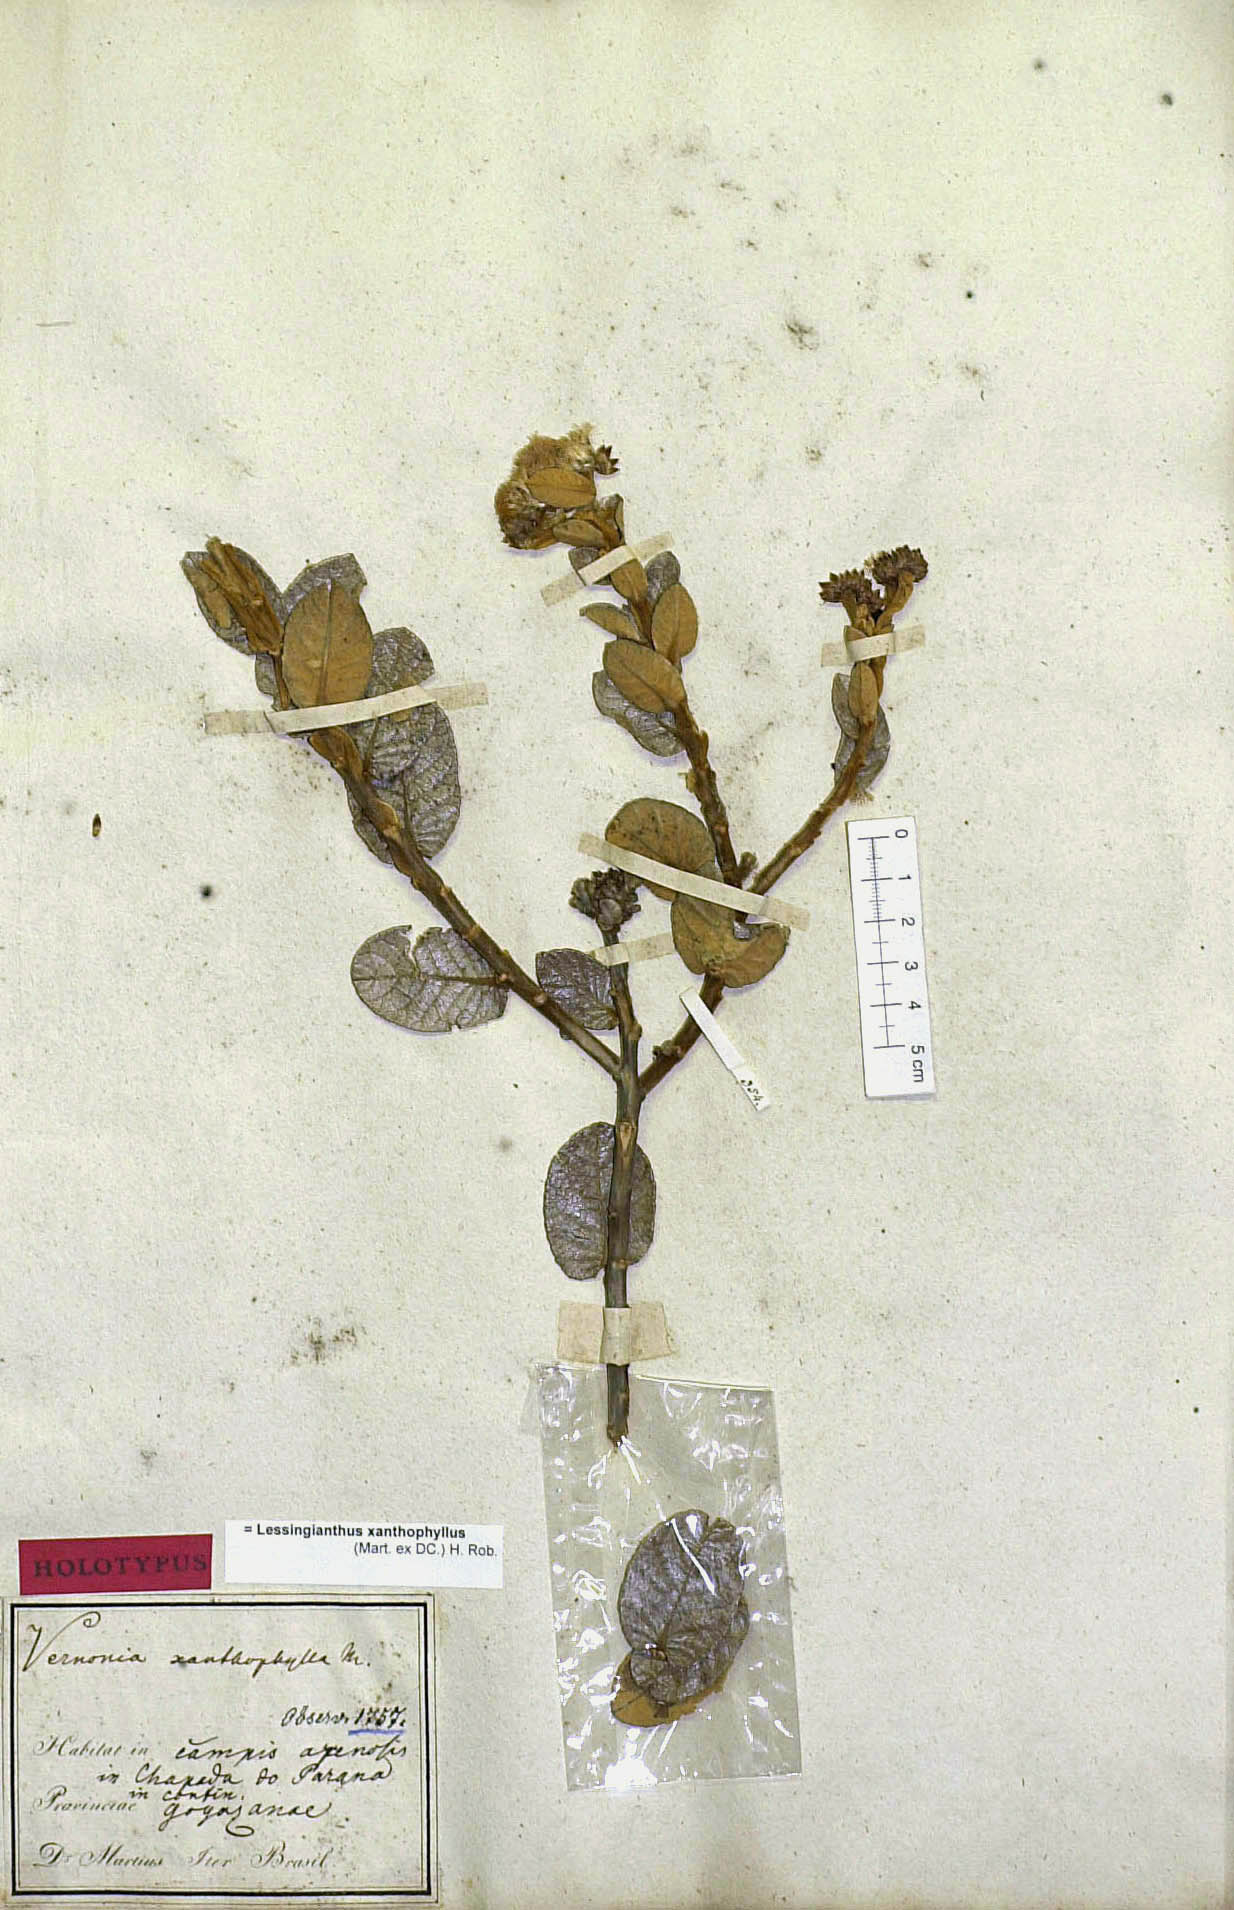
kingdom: Plantae
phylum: Tracheophyta
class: Magnoliopsida
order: Asterales
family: Asteraceae
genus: Lessingianthus
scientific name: Lessingianthus xanthophyllus
